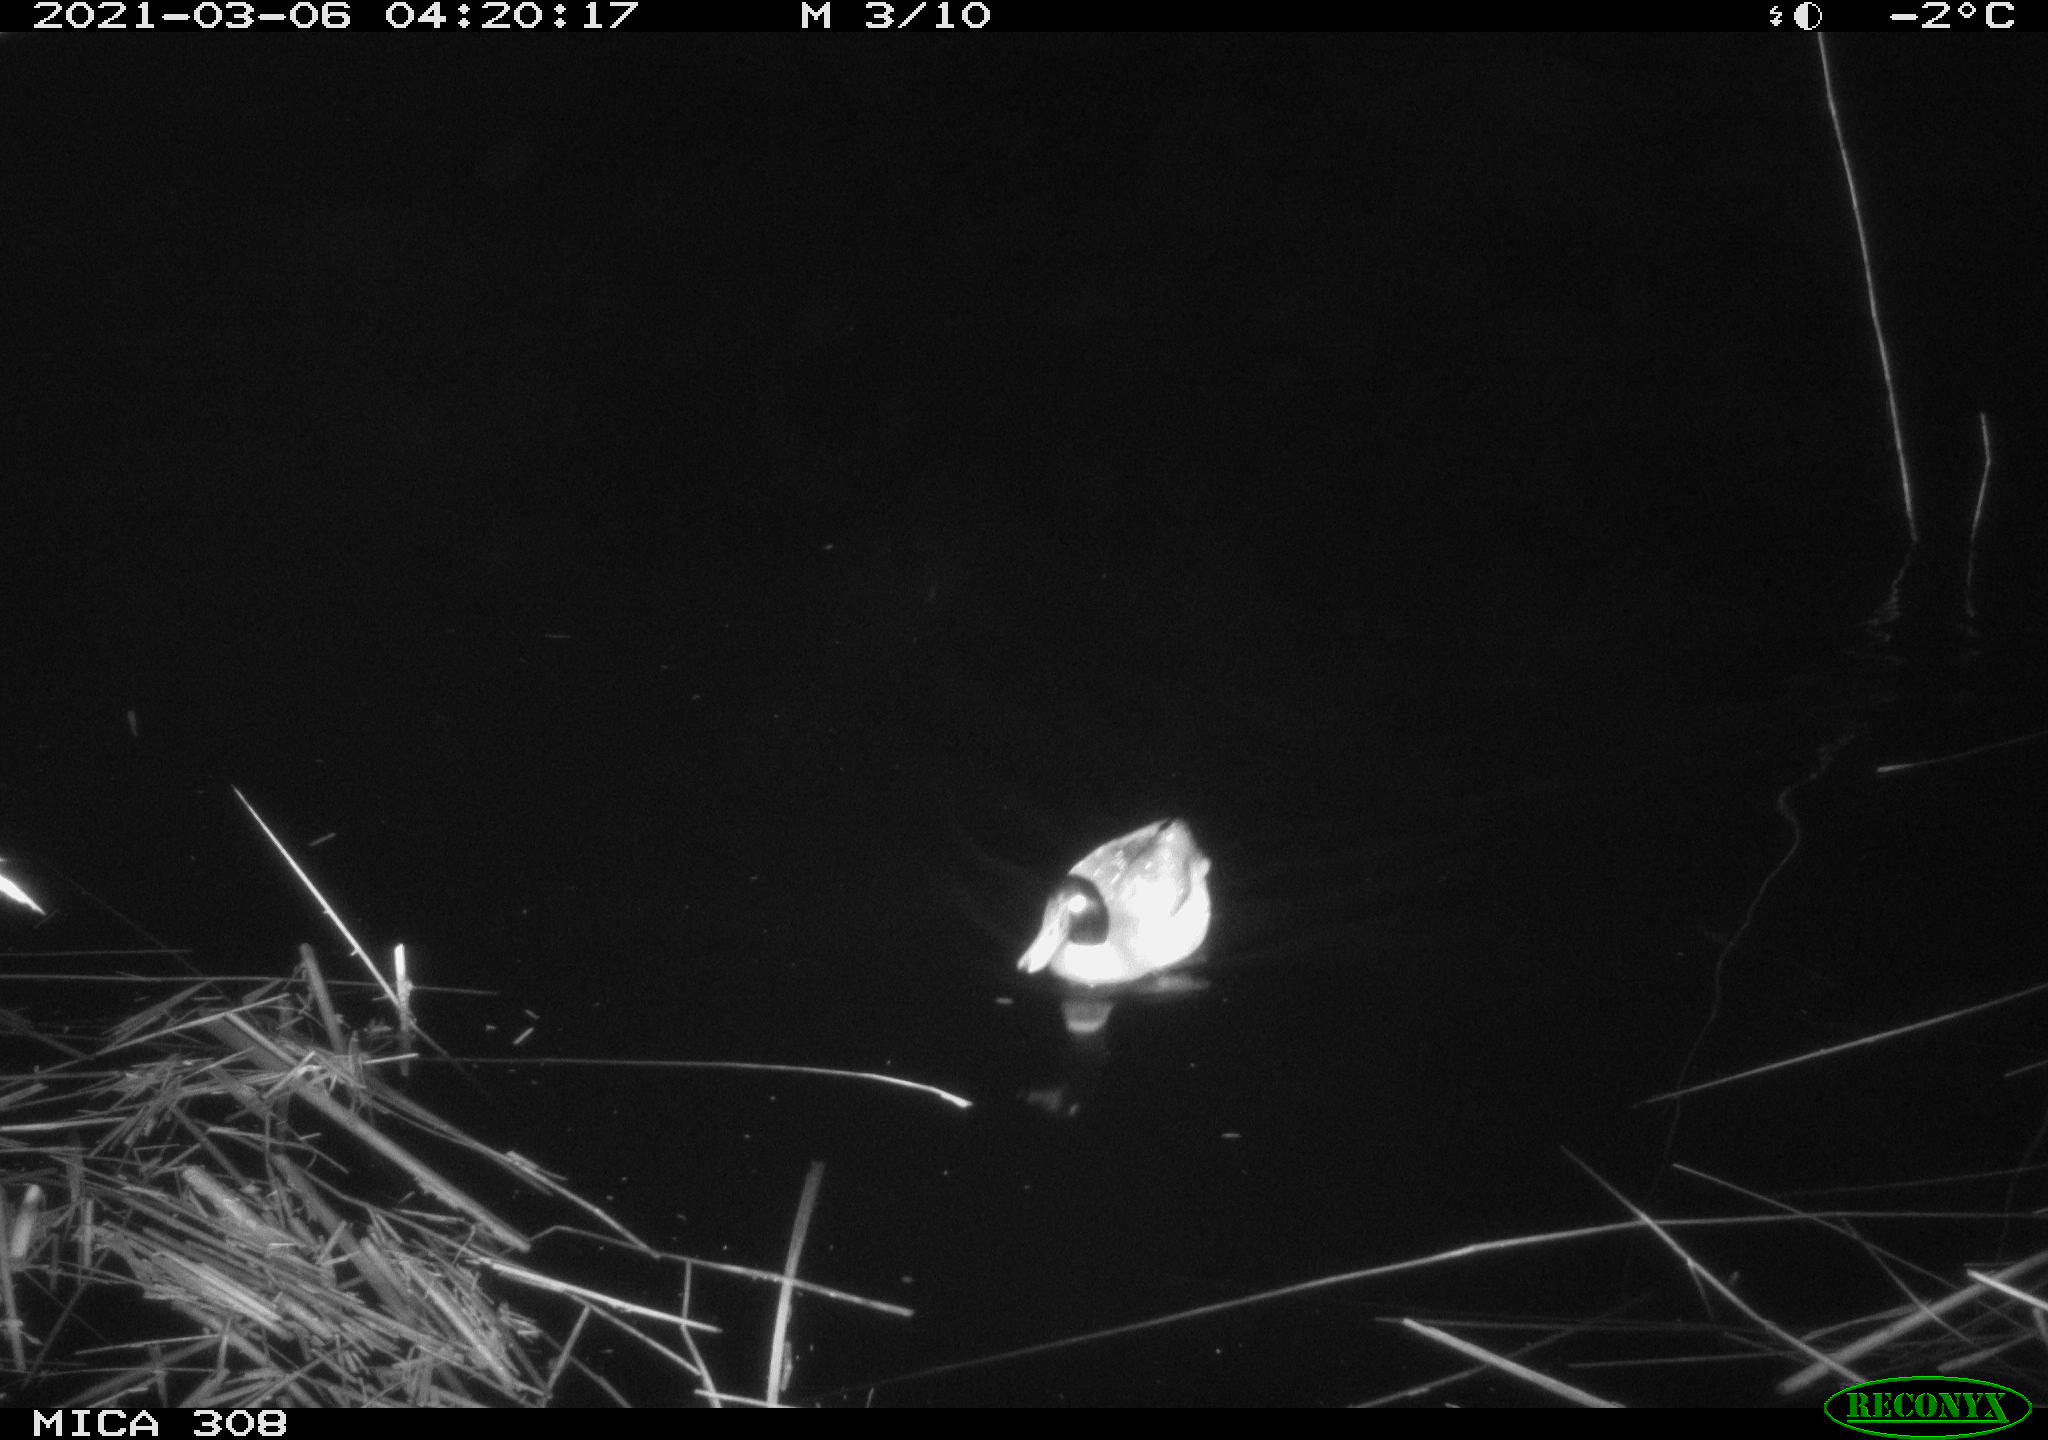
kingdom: Animalia
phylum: Chordata
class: Aves
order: Gruiformes
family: Rallidae
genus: Gallinula
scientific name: Gallinula chloropus
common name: Common moorhen
